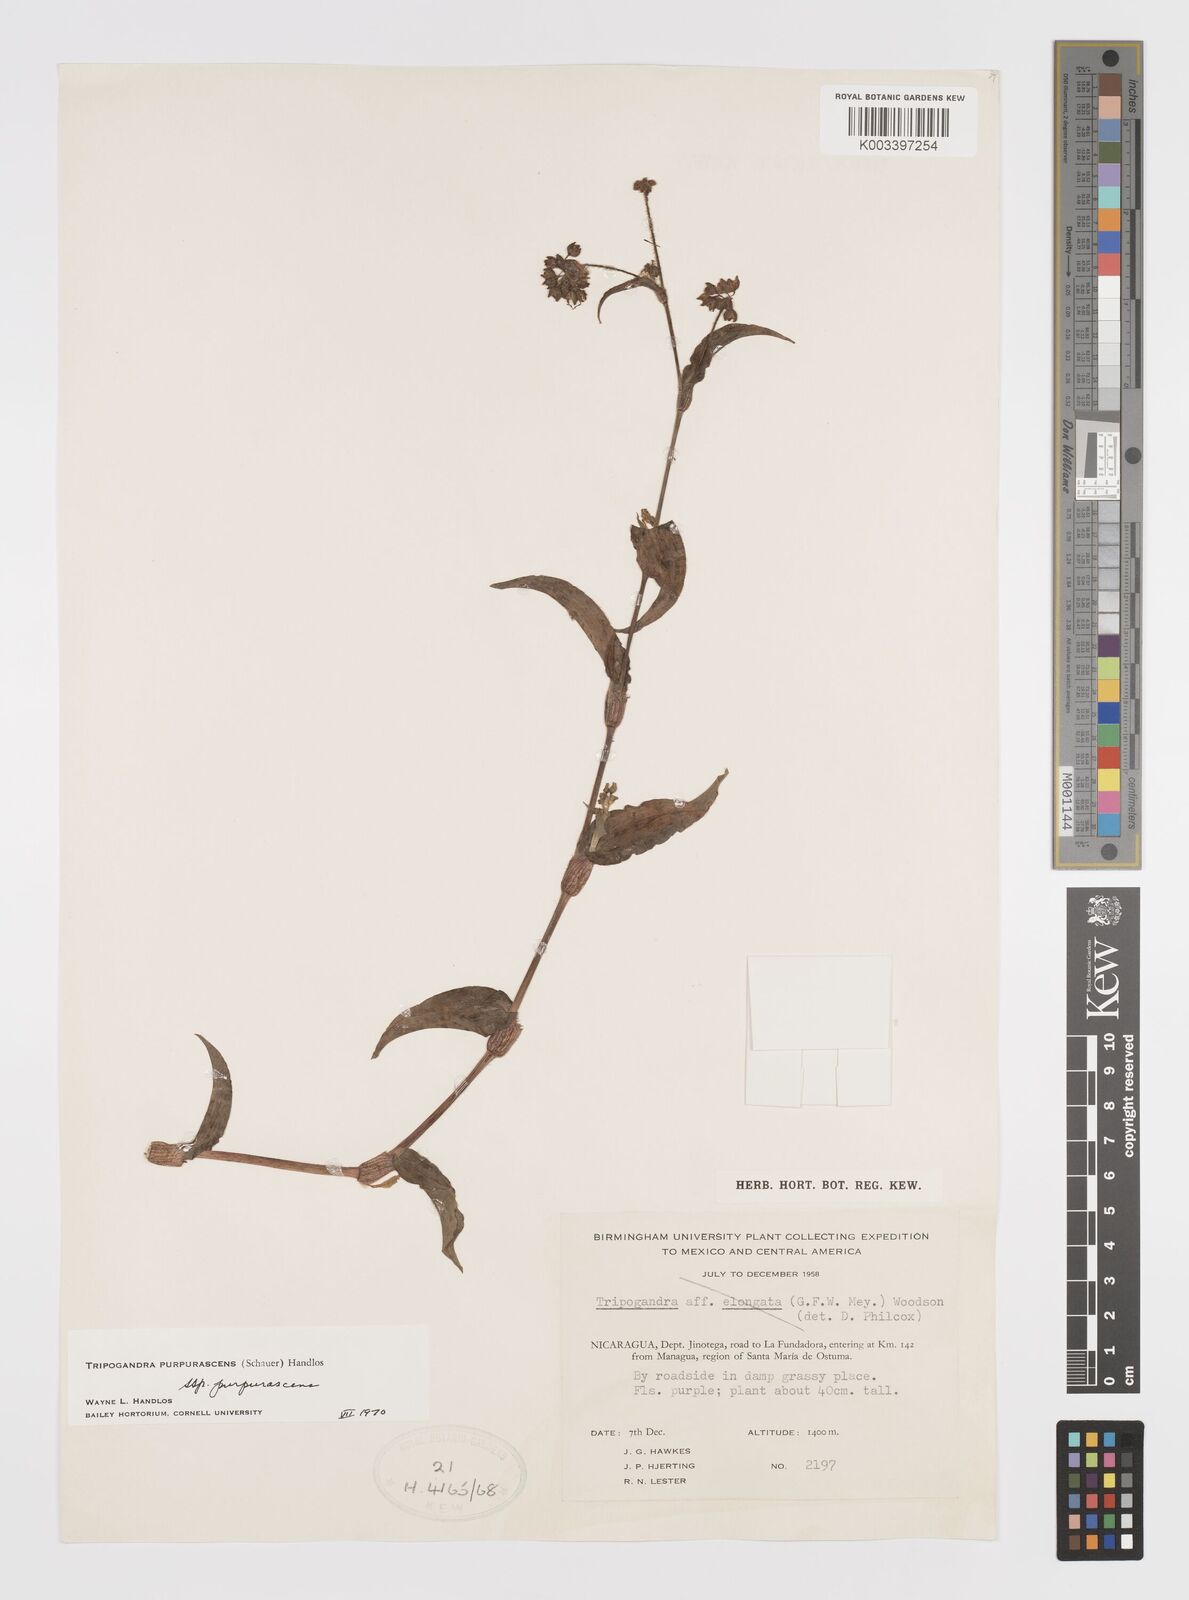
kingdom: Plantae
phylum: Tracheophyta
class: Liliopsida
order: Commelinales
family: Commelinaceae
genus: Callisia
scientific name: Callisia purpurascens
